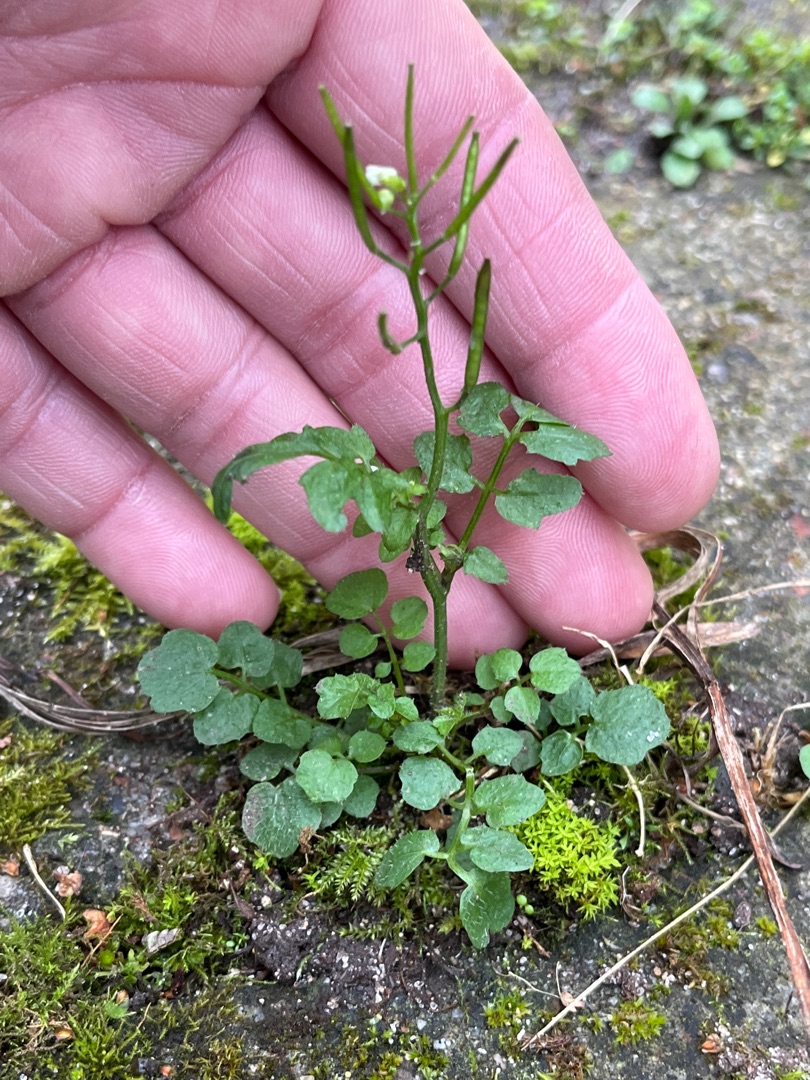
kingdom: Plantae
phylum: Tracheophyta
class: Magnoliopsida
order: Brassicales
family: Brassicaceae
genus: Cardamine
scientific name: Cardamine hirsuta
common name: Roset-springklap
